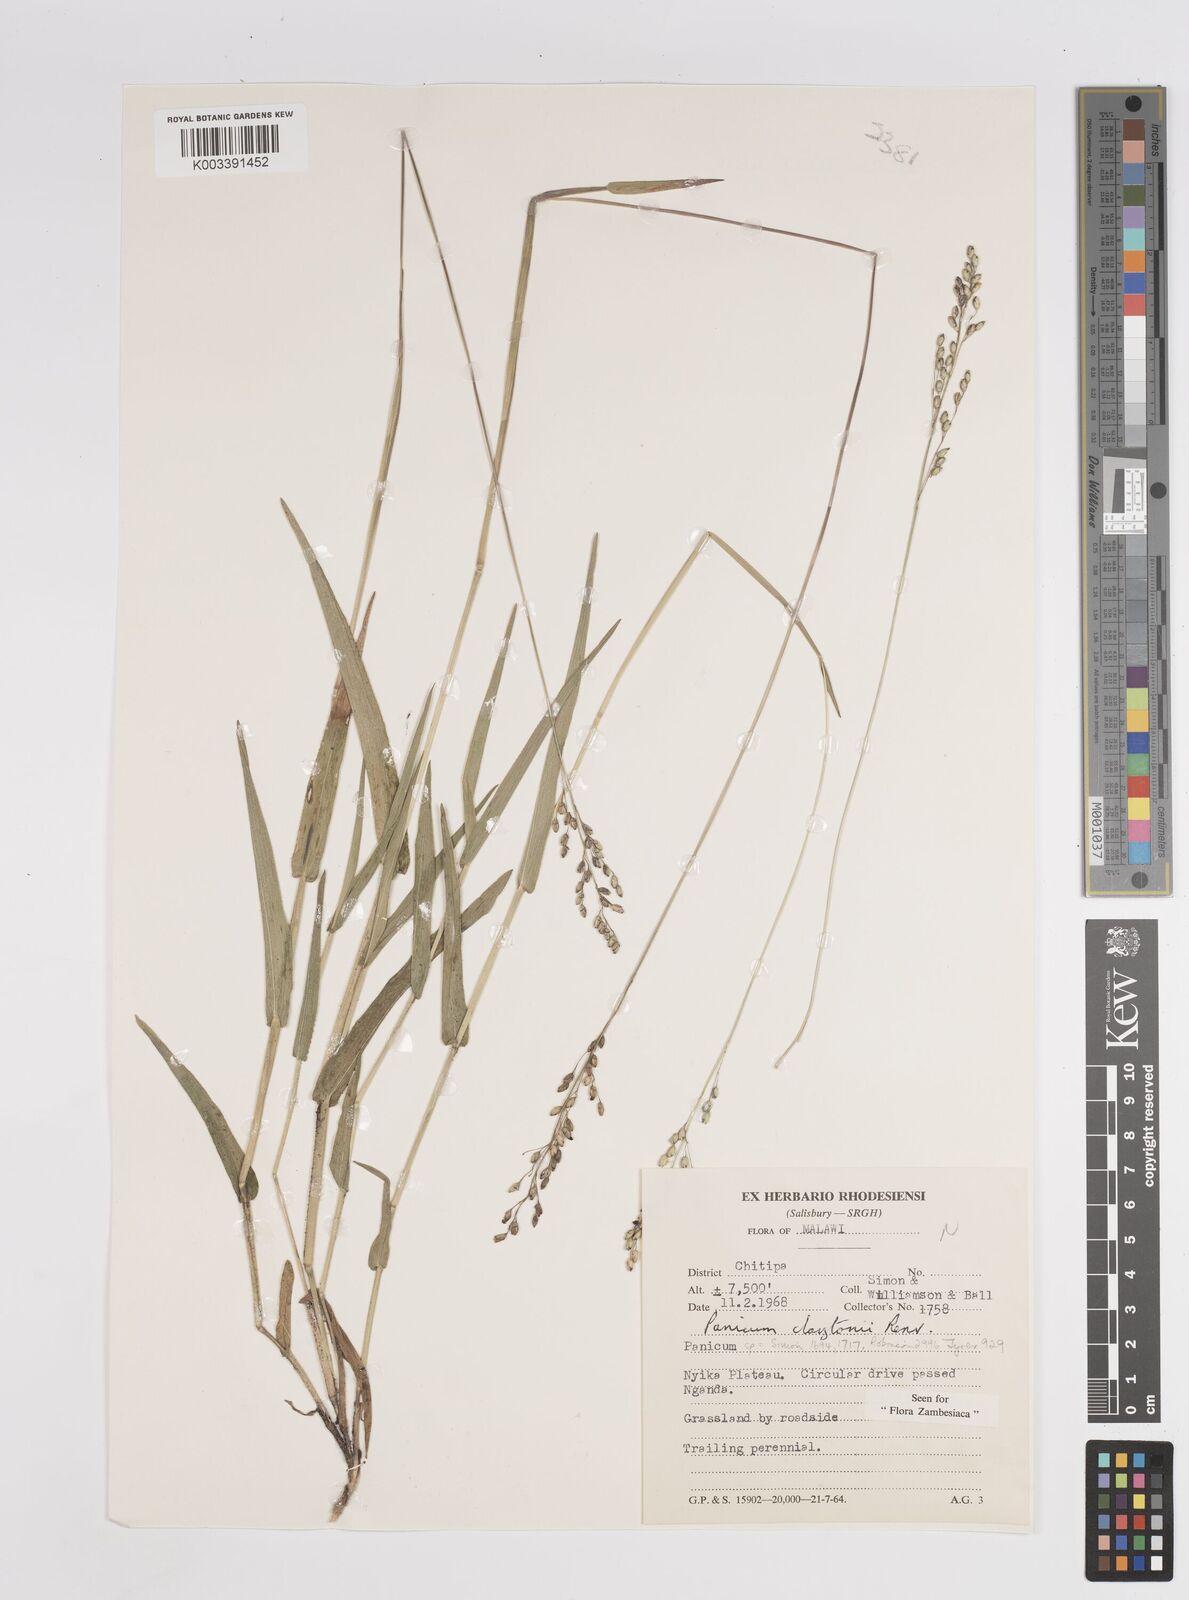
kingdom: Plantae
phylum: Tracheophyta
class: Liliopsida
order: Poales
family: Poaceae
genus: Adenochloa
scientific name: Adenochloa claytonii
